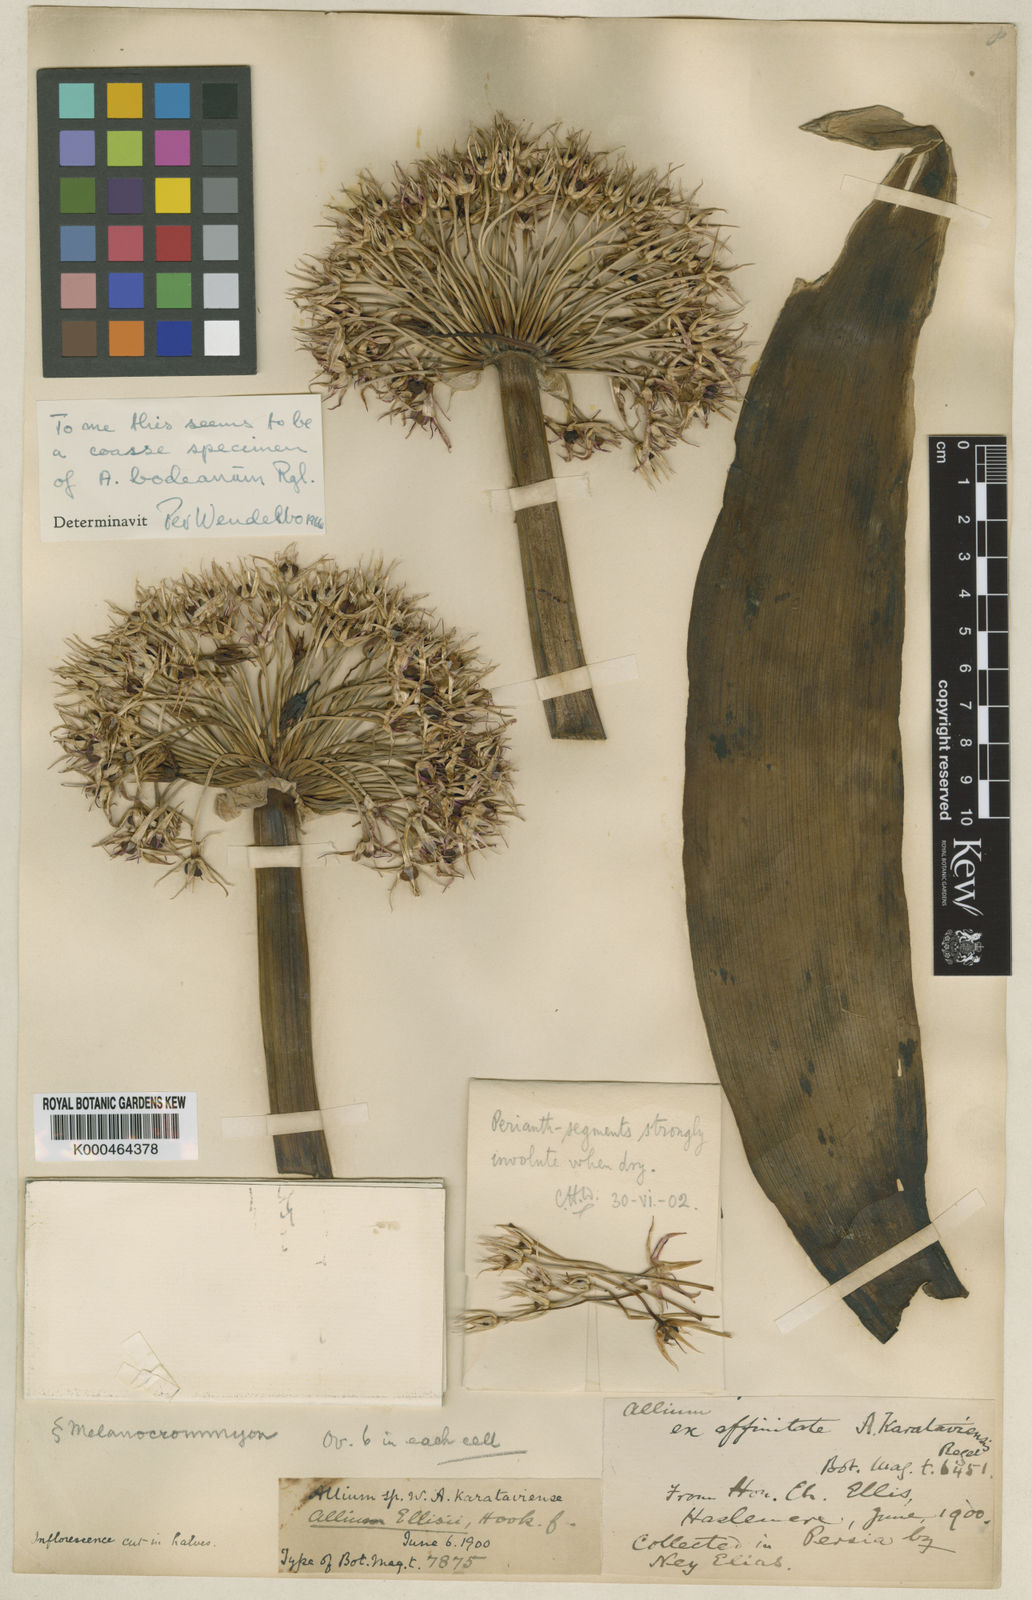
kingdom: Plantae
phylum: Tracheophyta
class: Liliopsida
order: Asparagales
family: Amaryllidaceae
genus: Allium
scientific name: Allium ellisii
